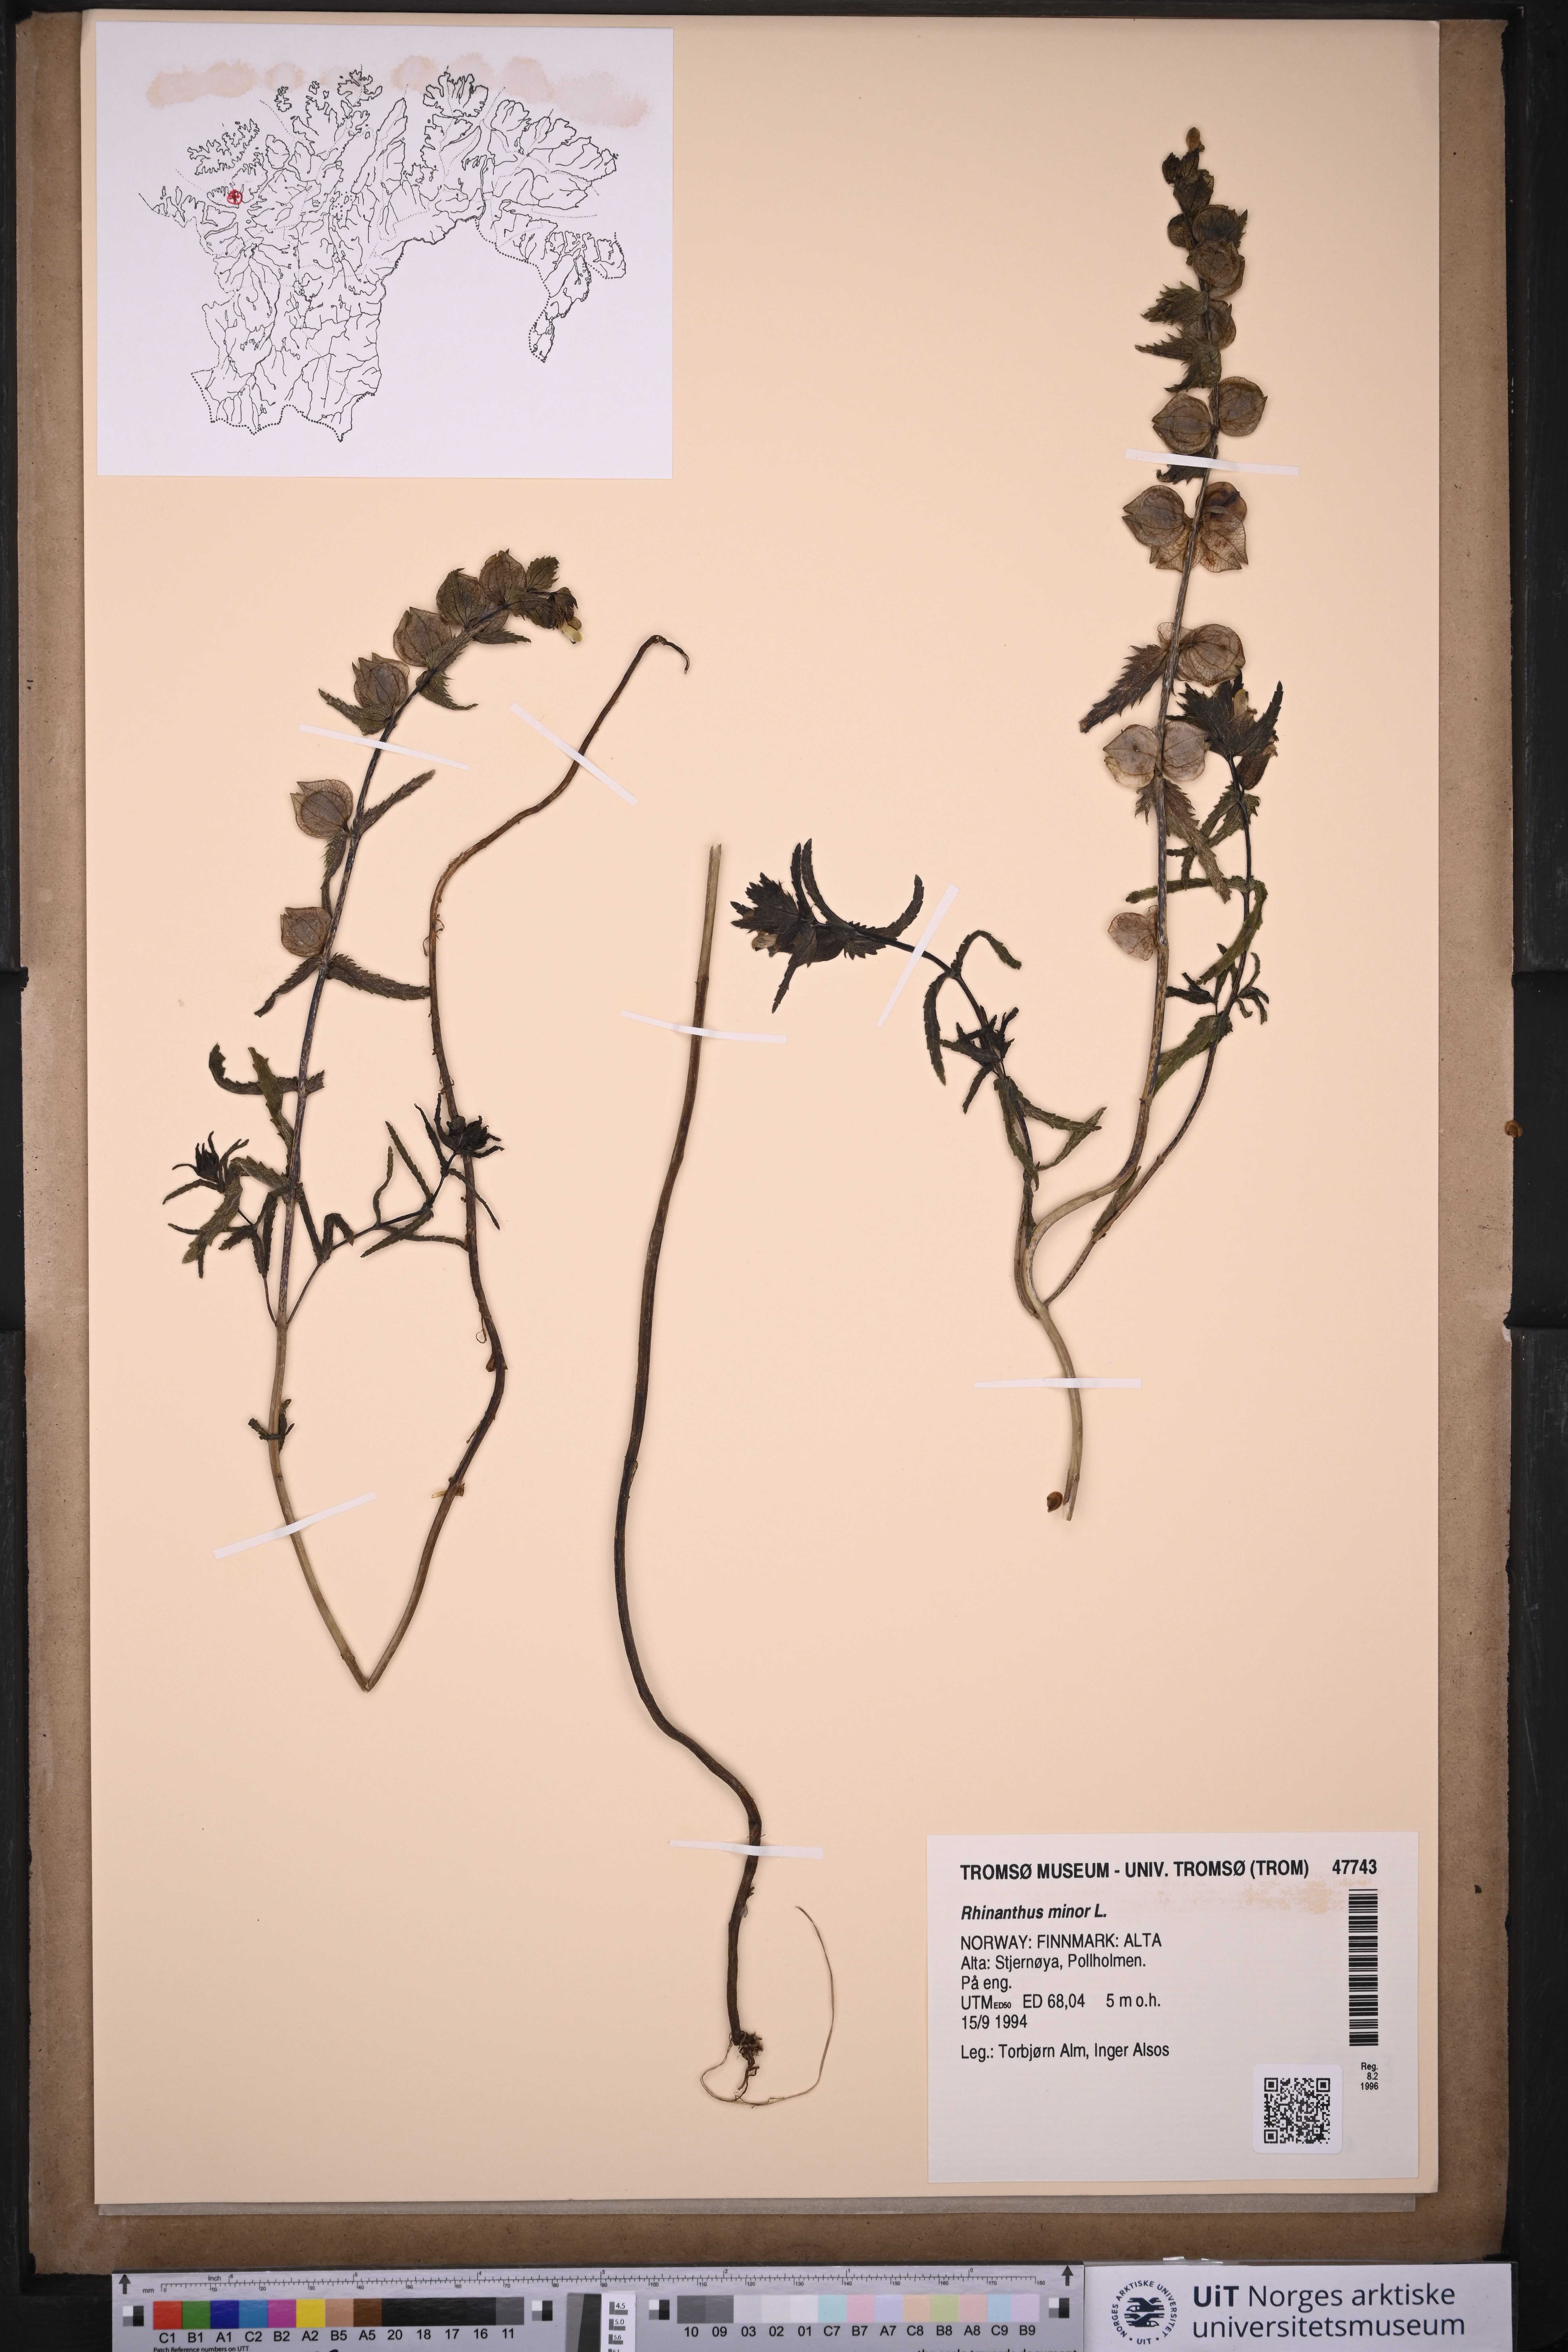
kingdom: Plantae
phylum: Tracheophyta
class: Magnoliopsida
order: Lamiales
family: Orobanchaceae
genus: Rhinanthus
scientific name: Rhinanthus minor
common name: Yellow-rattle
